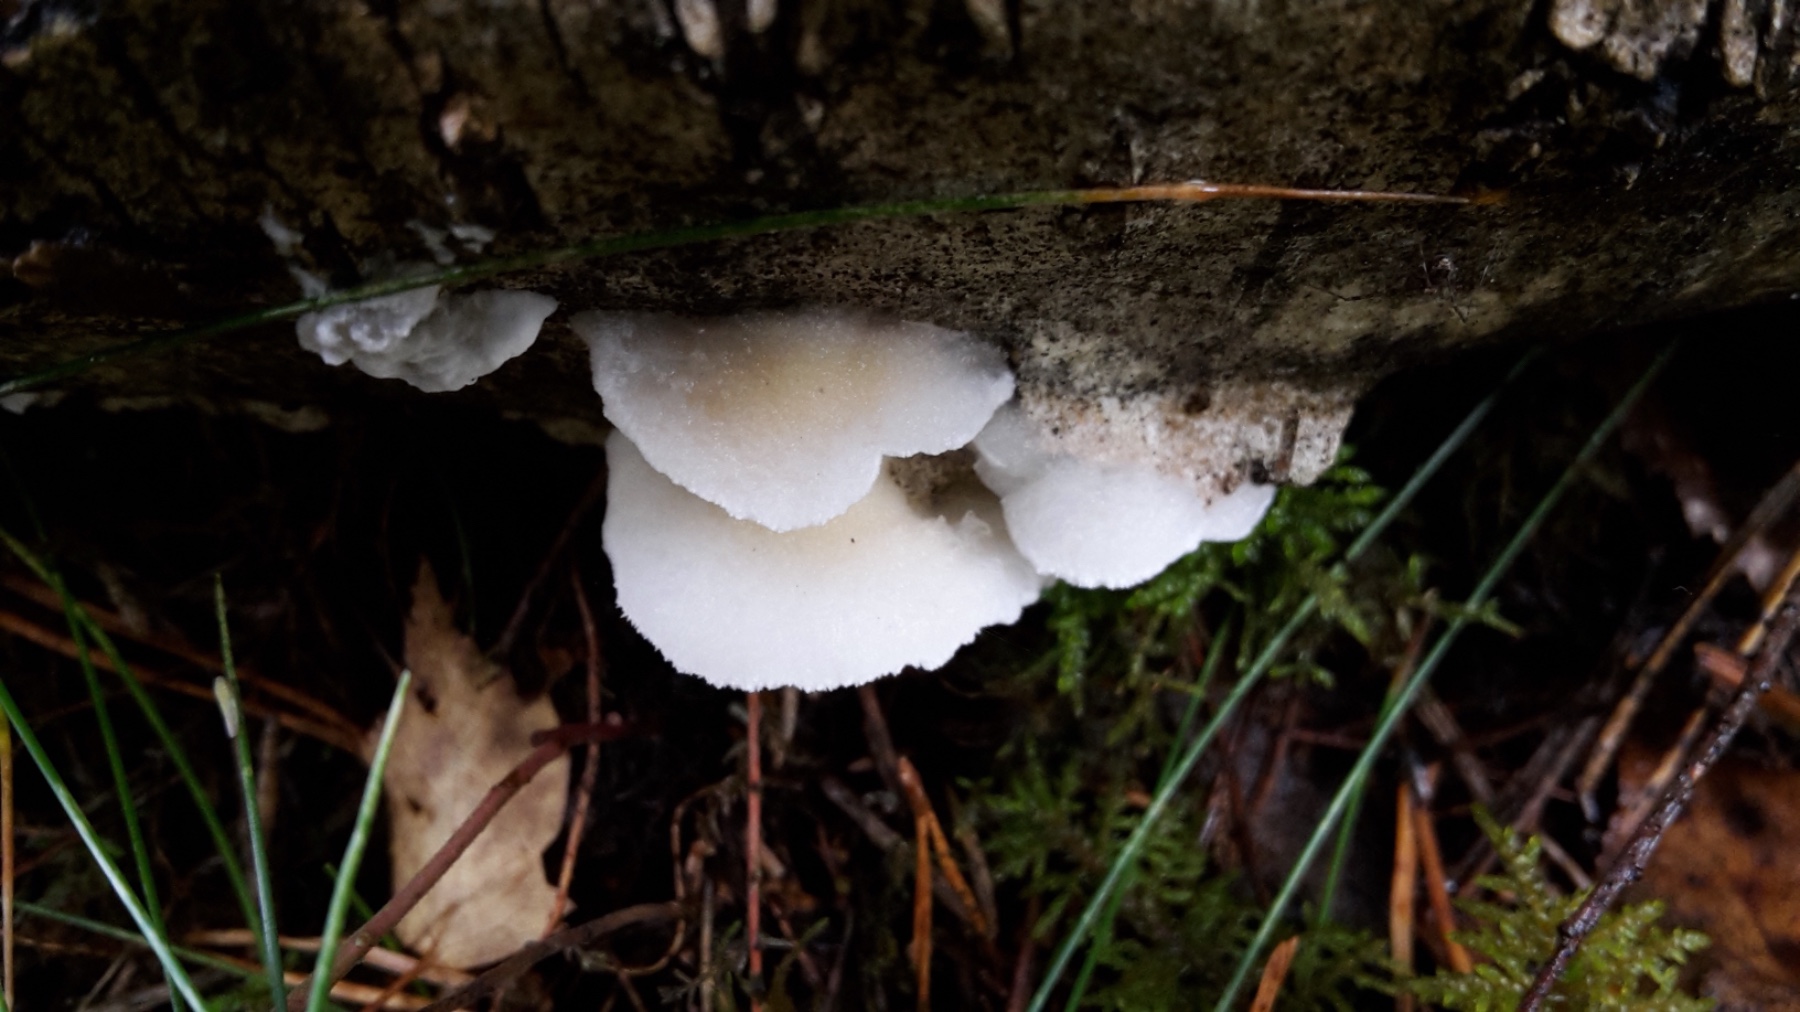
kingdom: Fungi
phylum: Basidiomycota
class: Agaricomycetes
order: Polyporales
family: Irpicaceae
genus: Vitreoporus
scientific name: Vitreoporus dichrous
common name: tofarvet foldporesvamp
